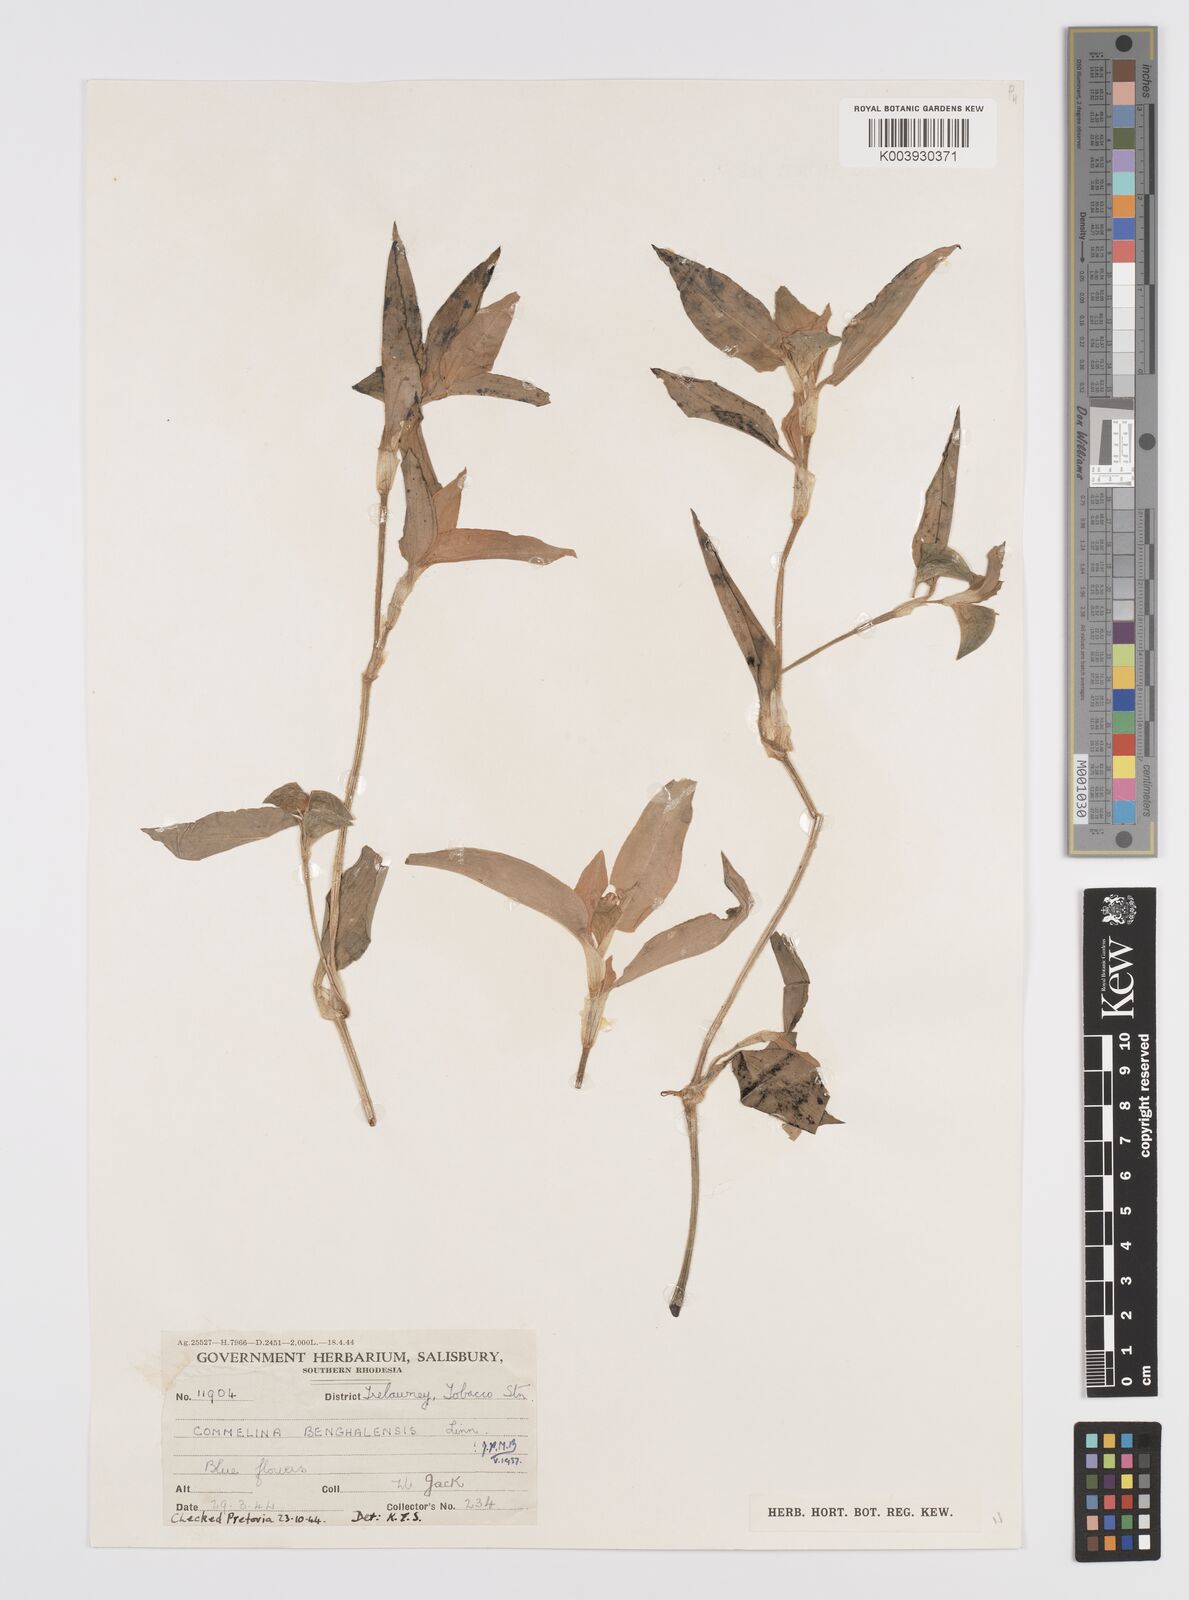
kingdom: Plantae
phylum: Tracheophyta
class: Liliopsida
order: Commelinales
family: Commelinaceae
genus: Commelina
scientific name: Commelina benghalensis
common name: Jio
